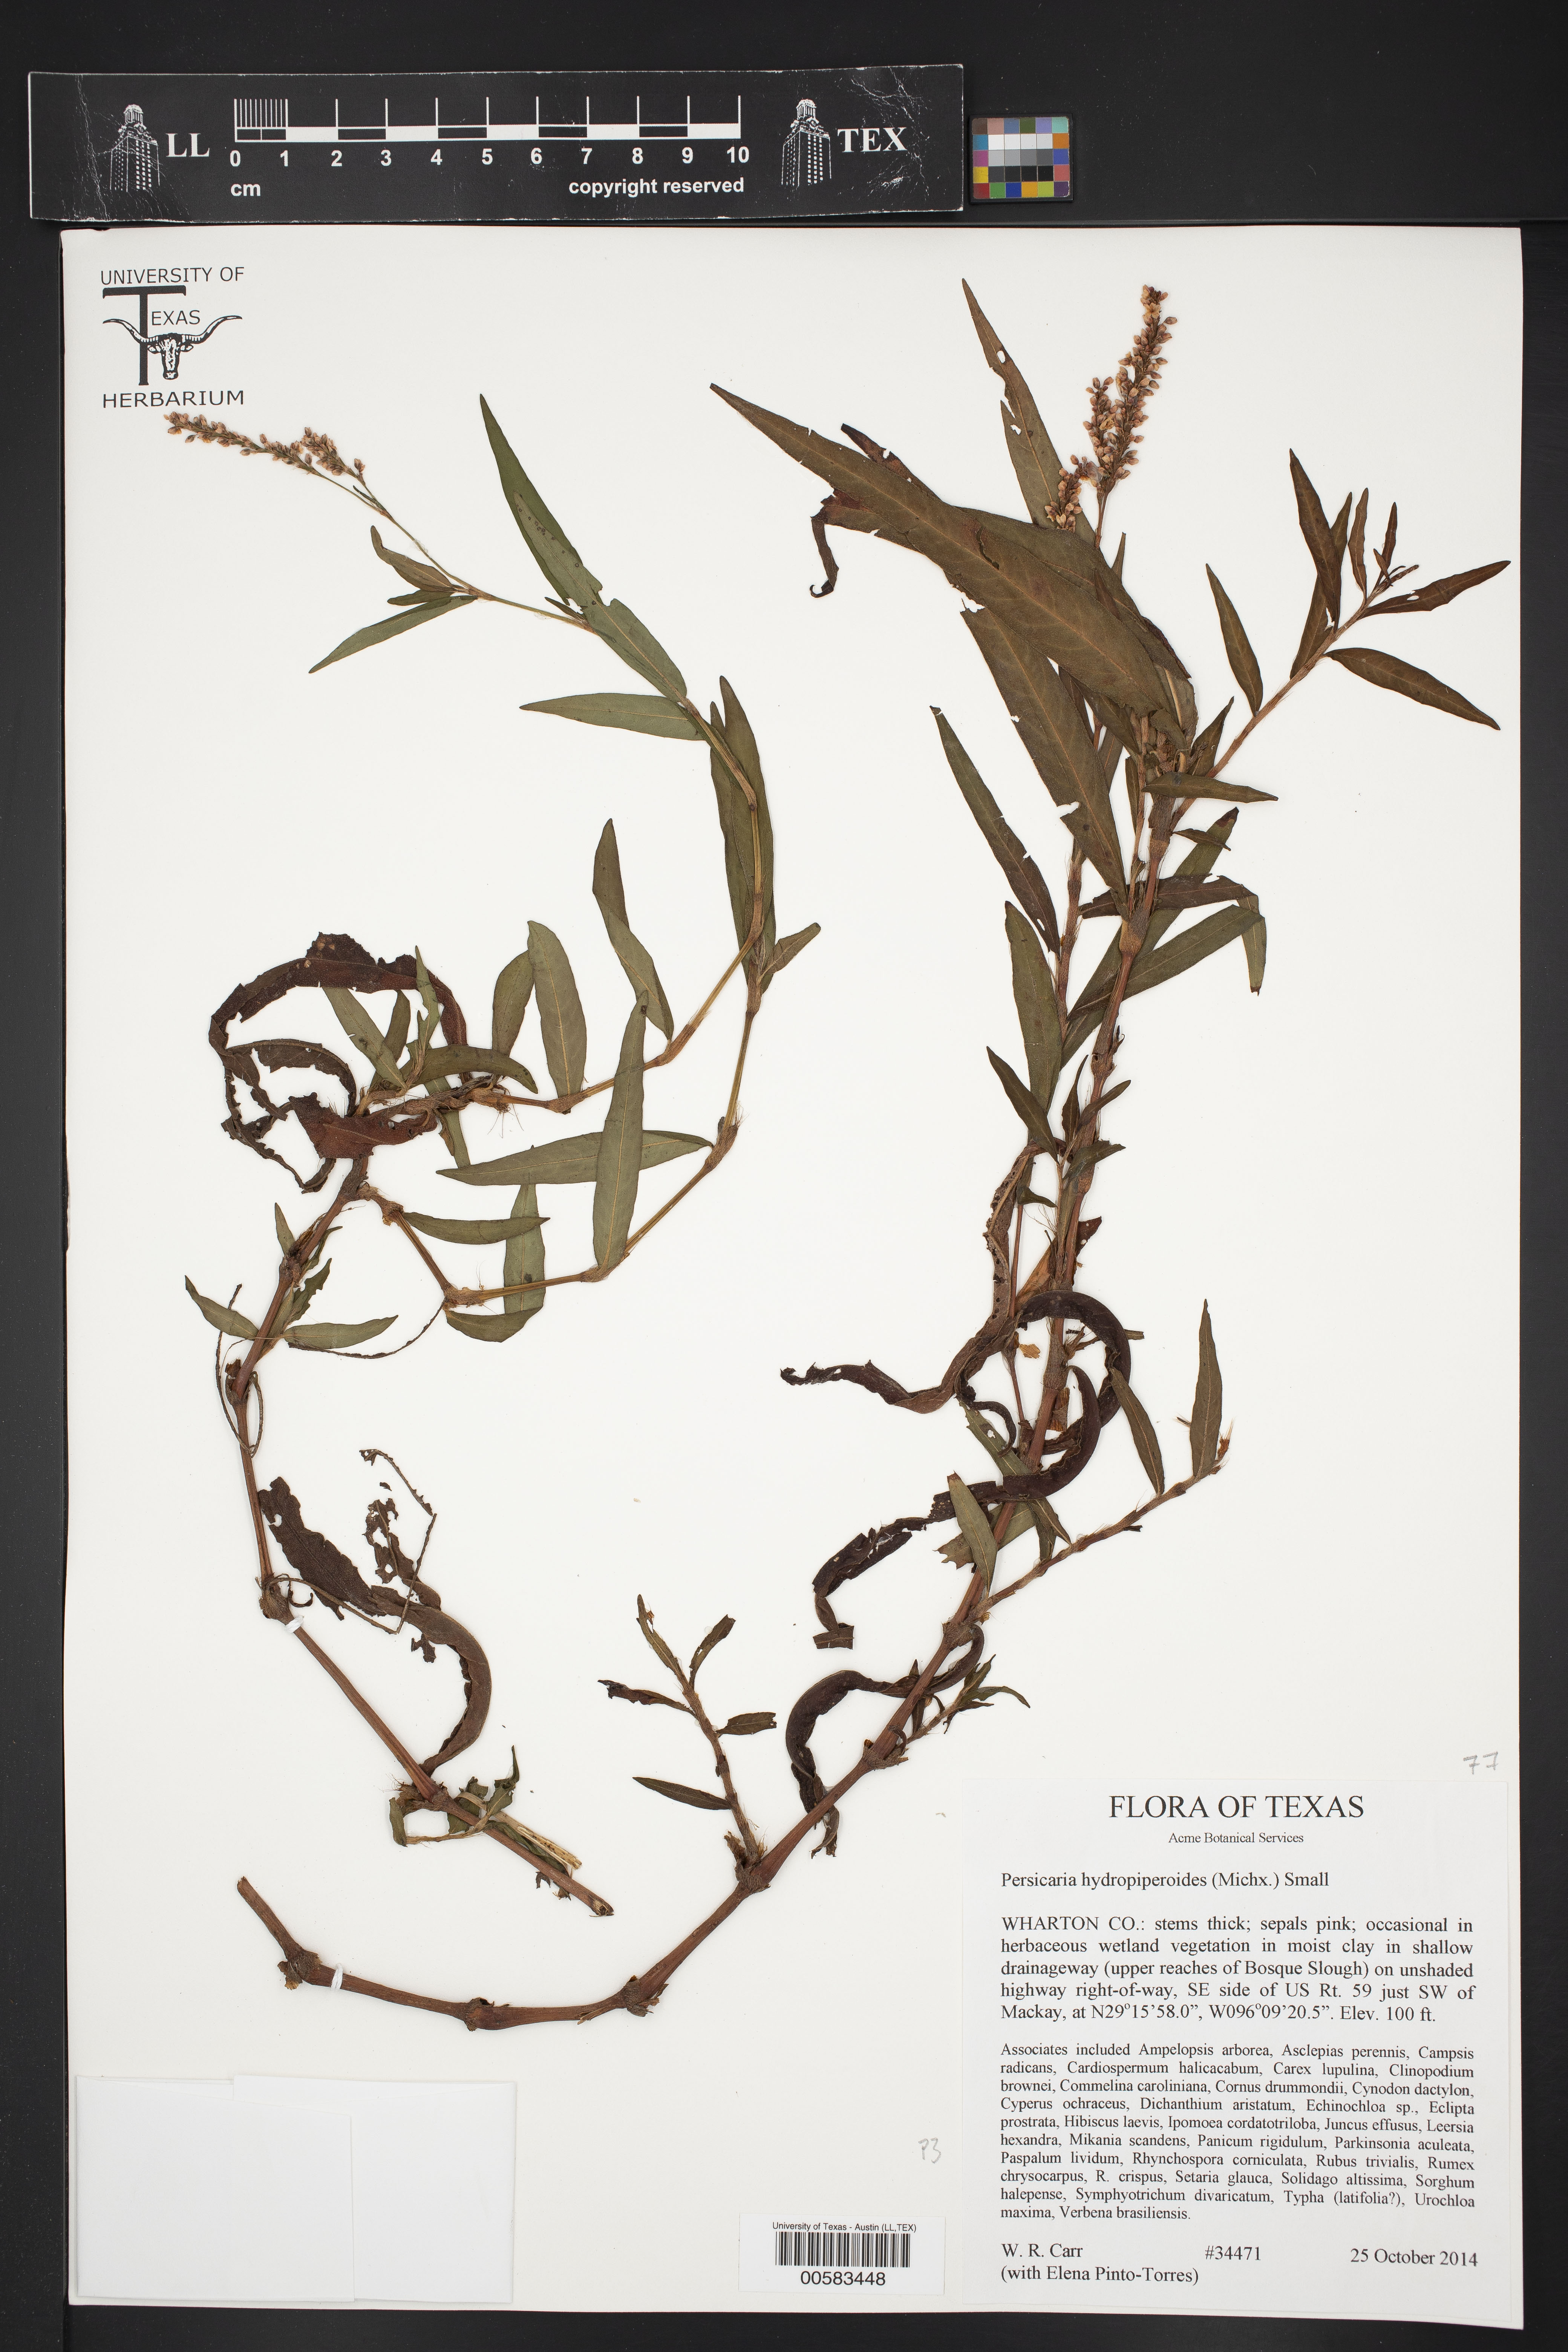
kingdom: Plantae
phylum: Tracheophyta
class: Magnoliopsida
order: Caryophyllales
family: Polygonaceae
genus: Persicaria
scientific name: Persicaria hydropiperoides
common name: Swamp smartweed
